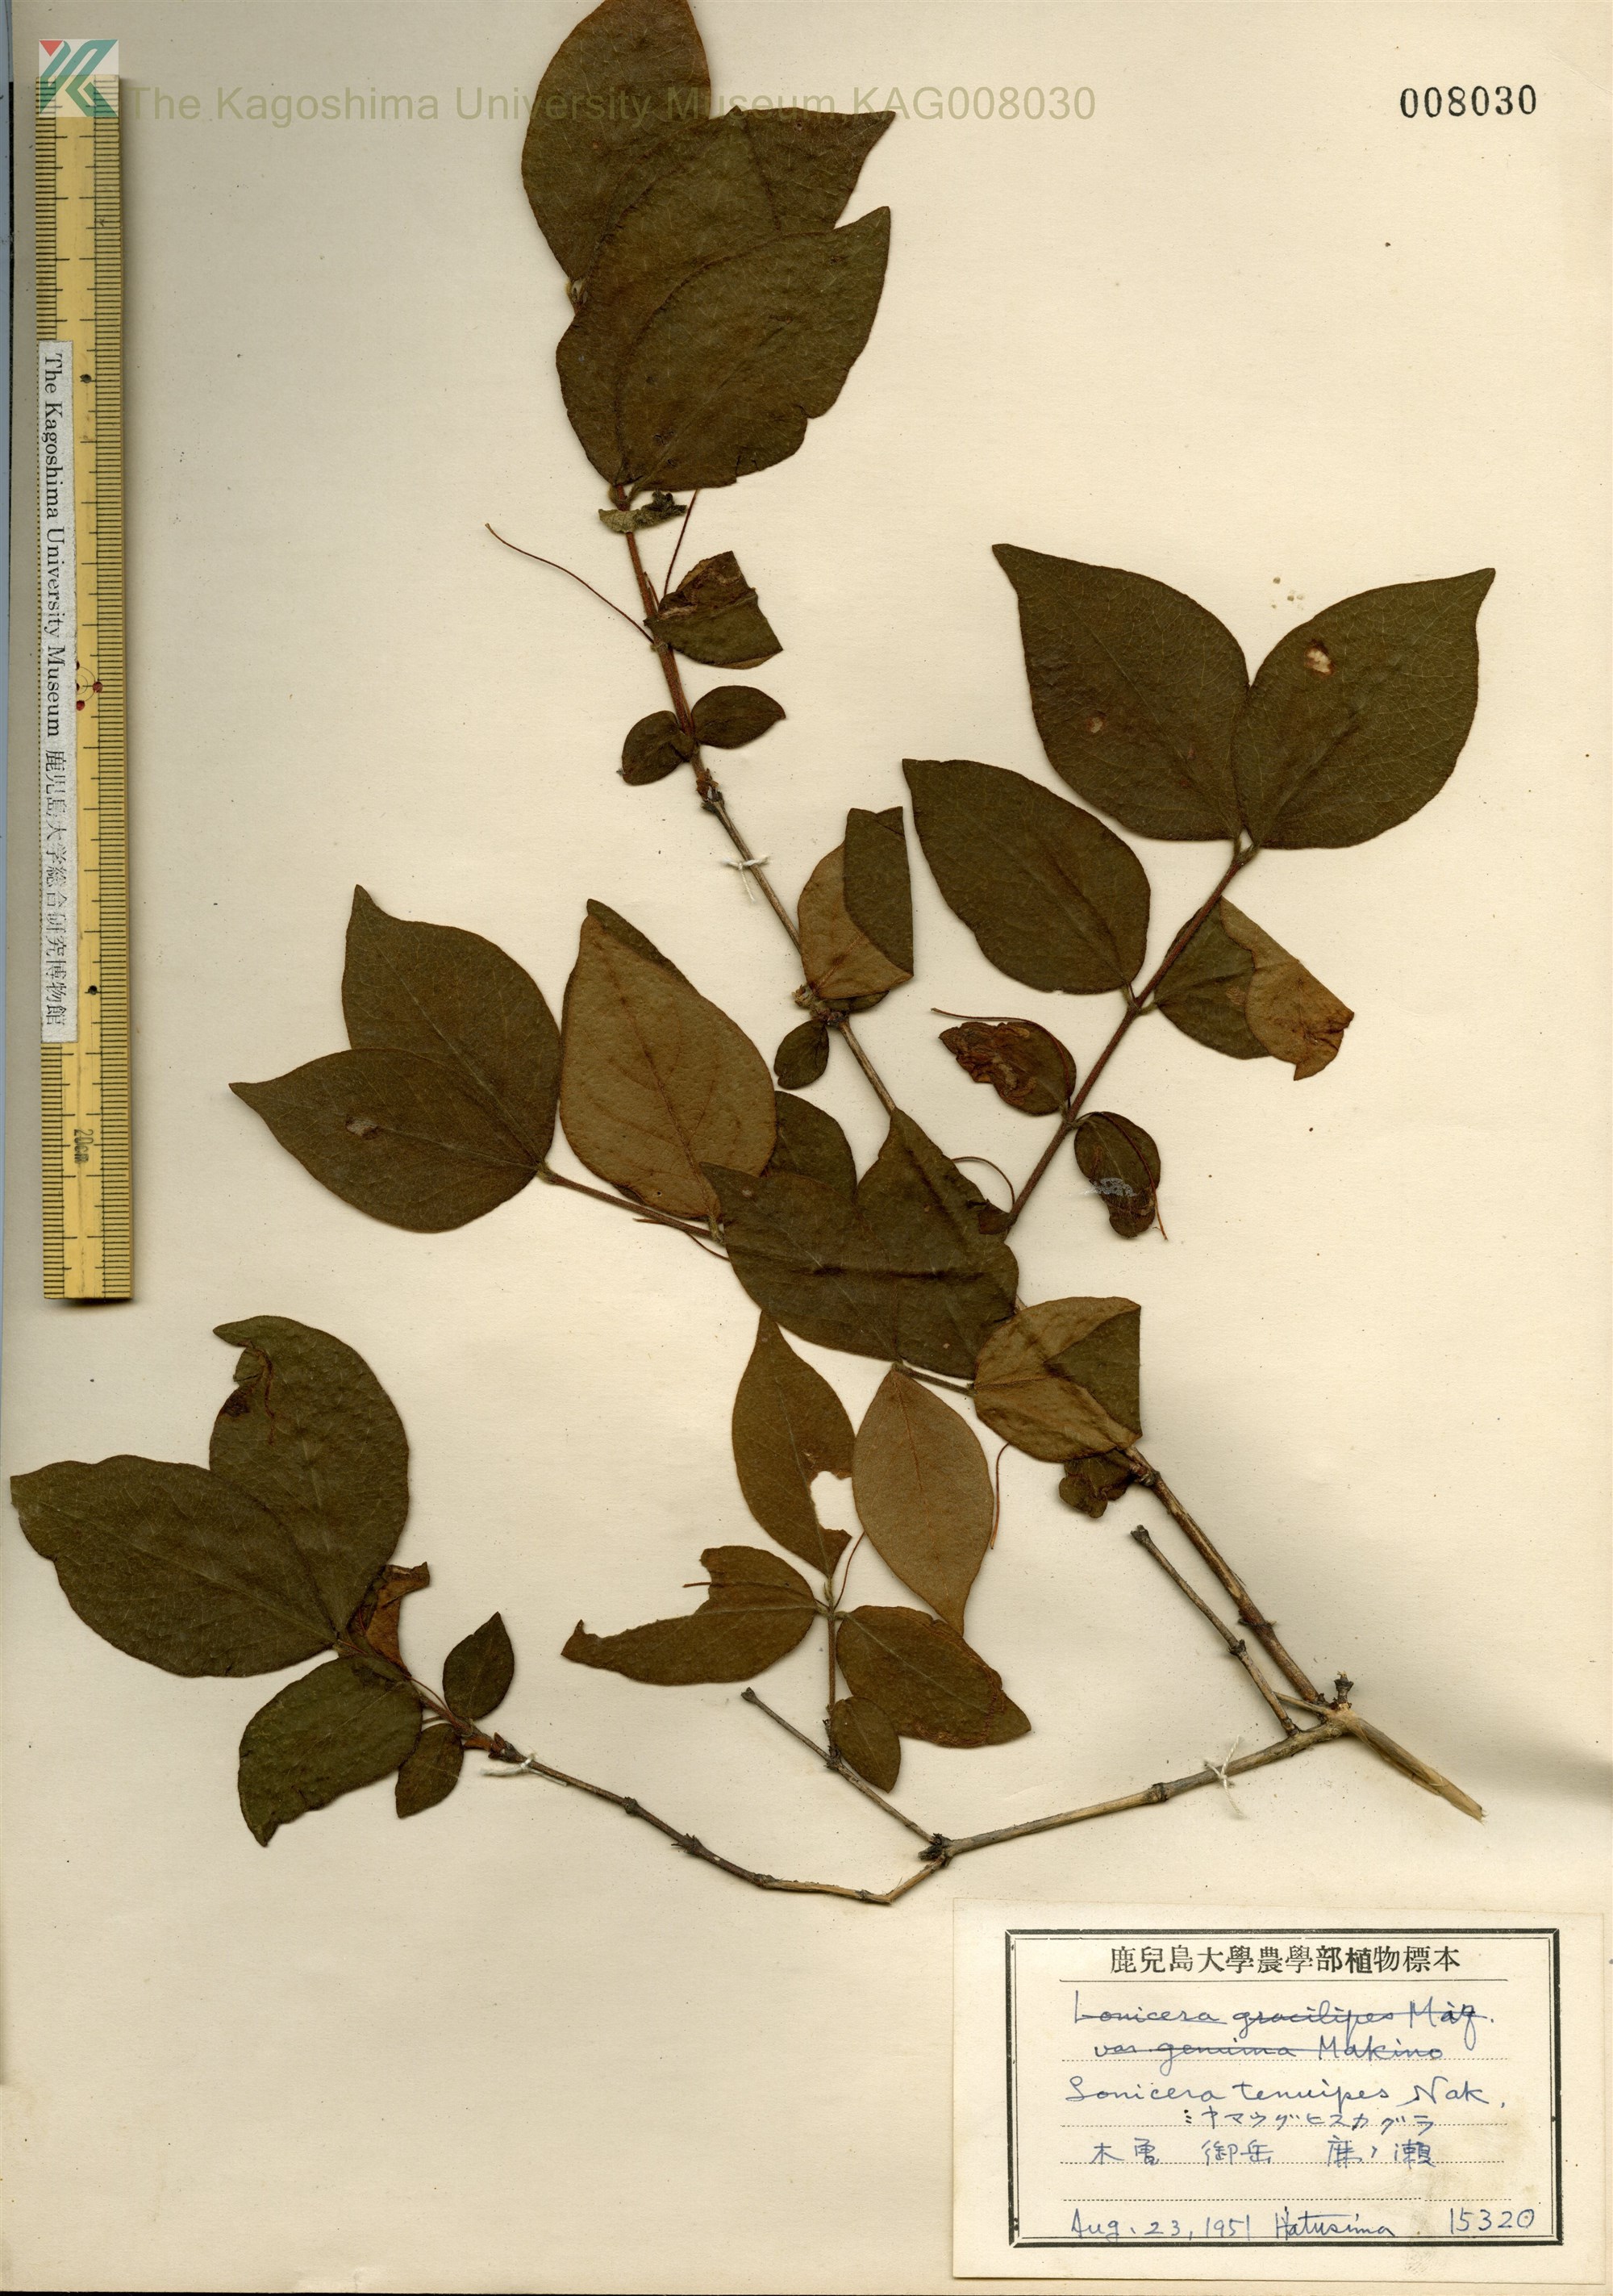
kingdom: Plantae
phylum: Tracheophyta
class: Magnoliopsida
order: Dipsacales
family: Caprifoliaceae
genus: Lonicera
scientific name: Lonicera gracilipes
